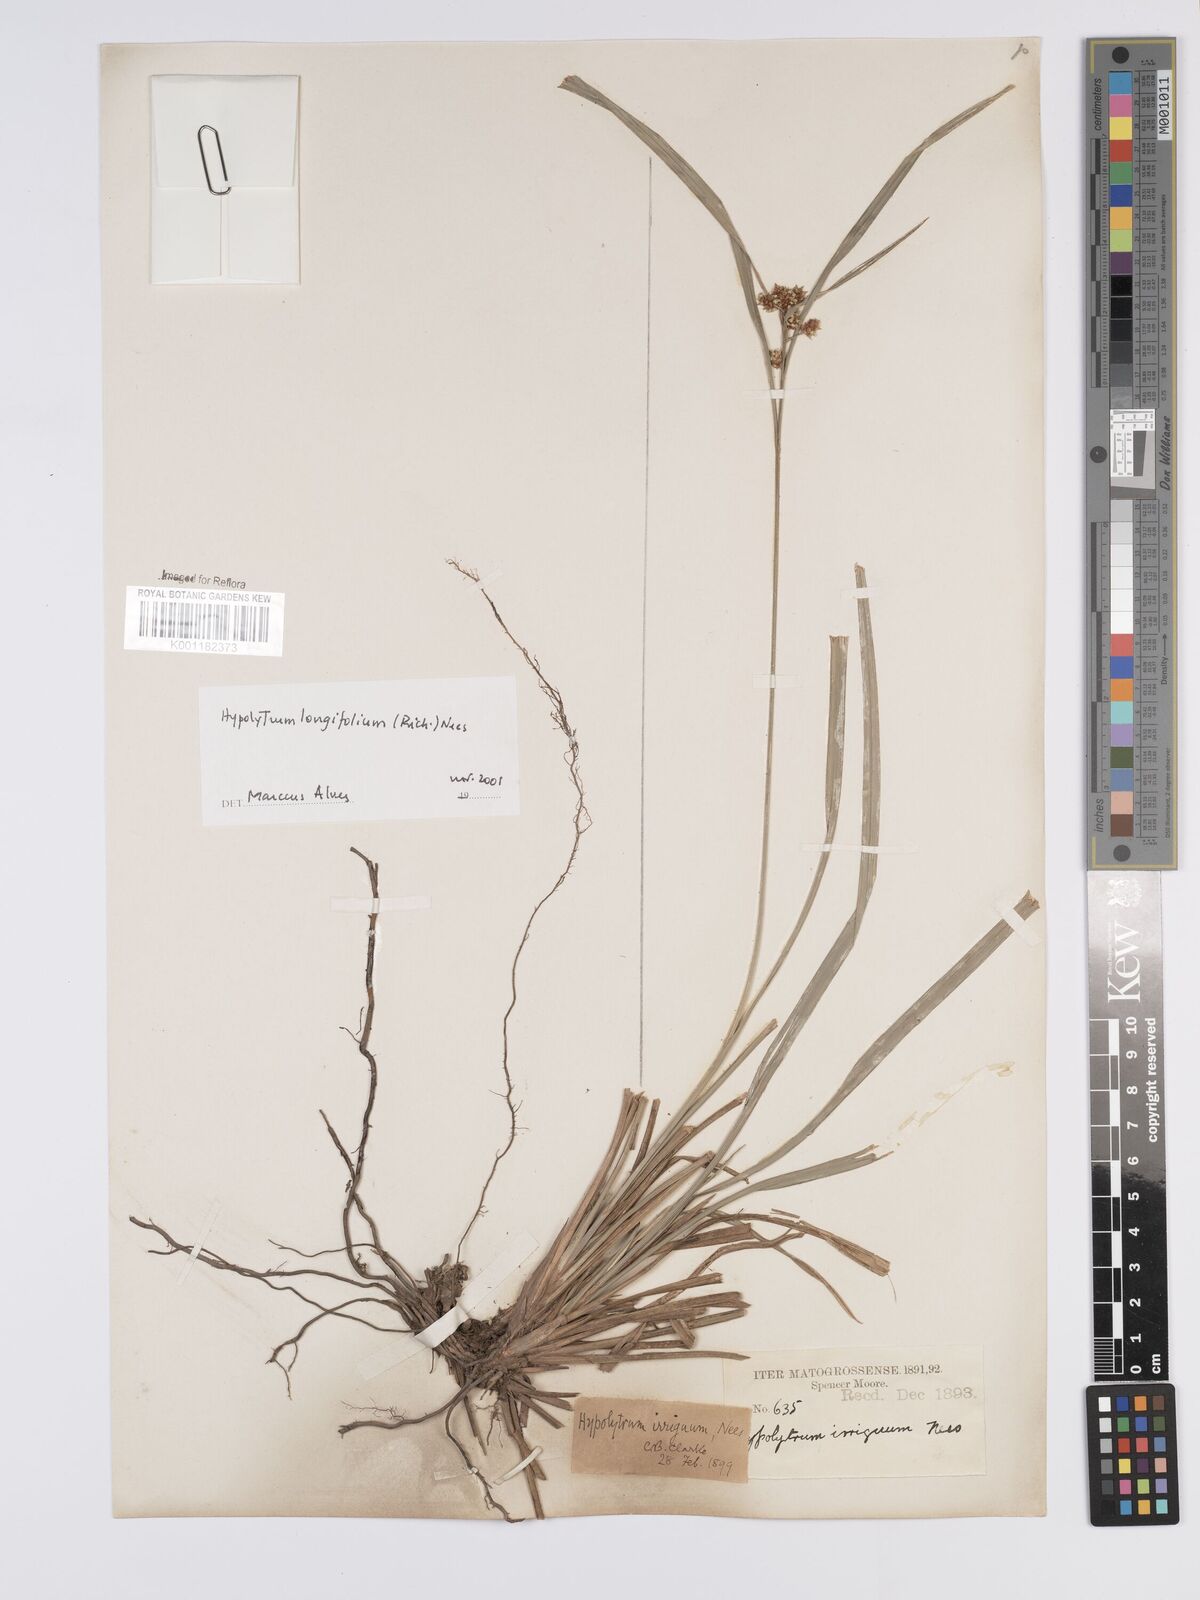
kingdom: Plantae
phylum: Tracheophyta
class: Liliopsida
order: Poales
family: Cyperaceae
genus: Hypolytrum
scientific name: Hypolytrum longifolium
